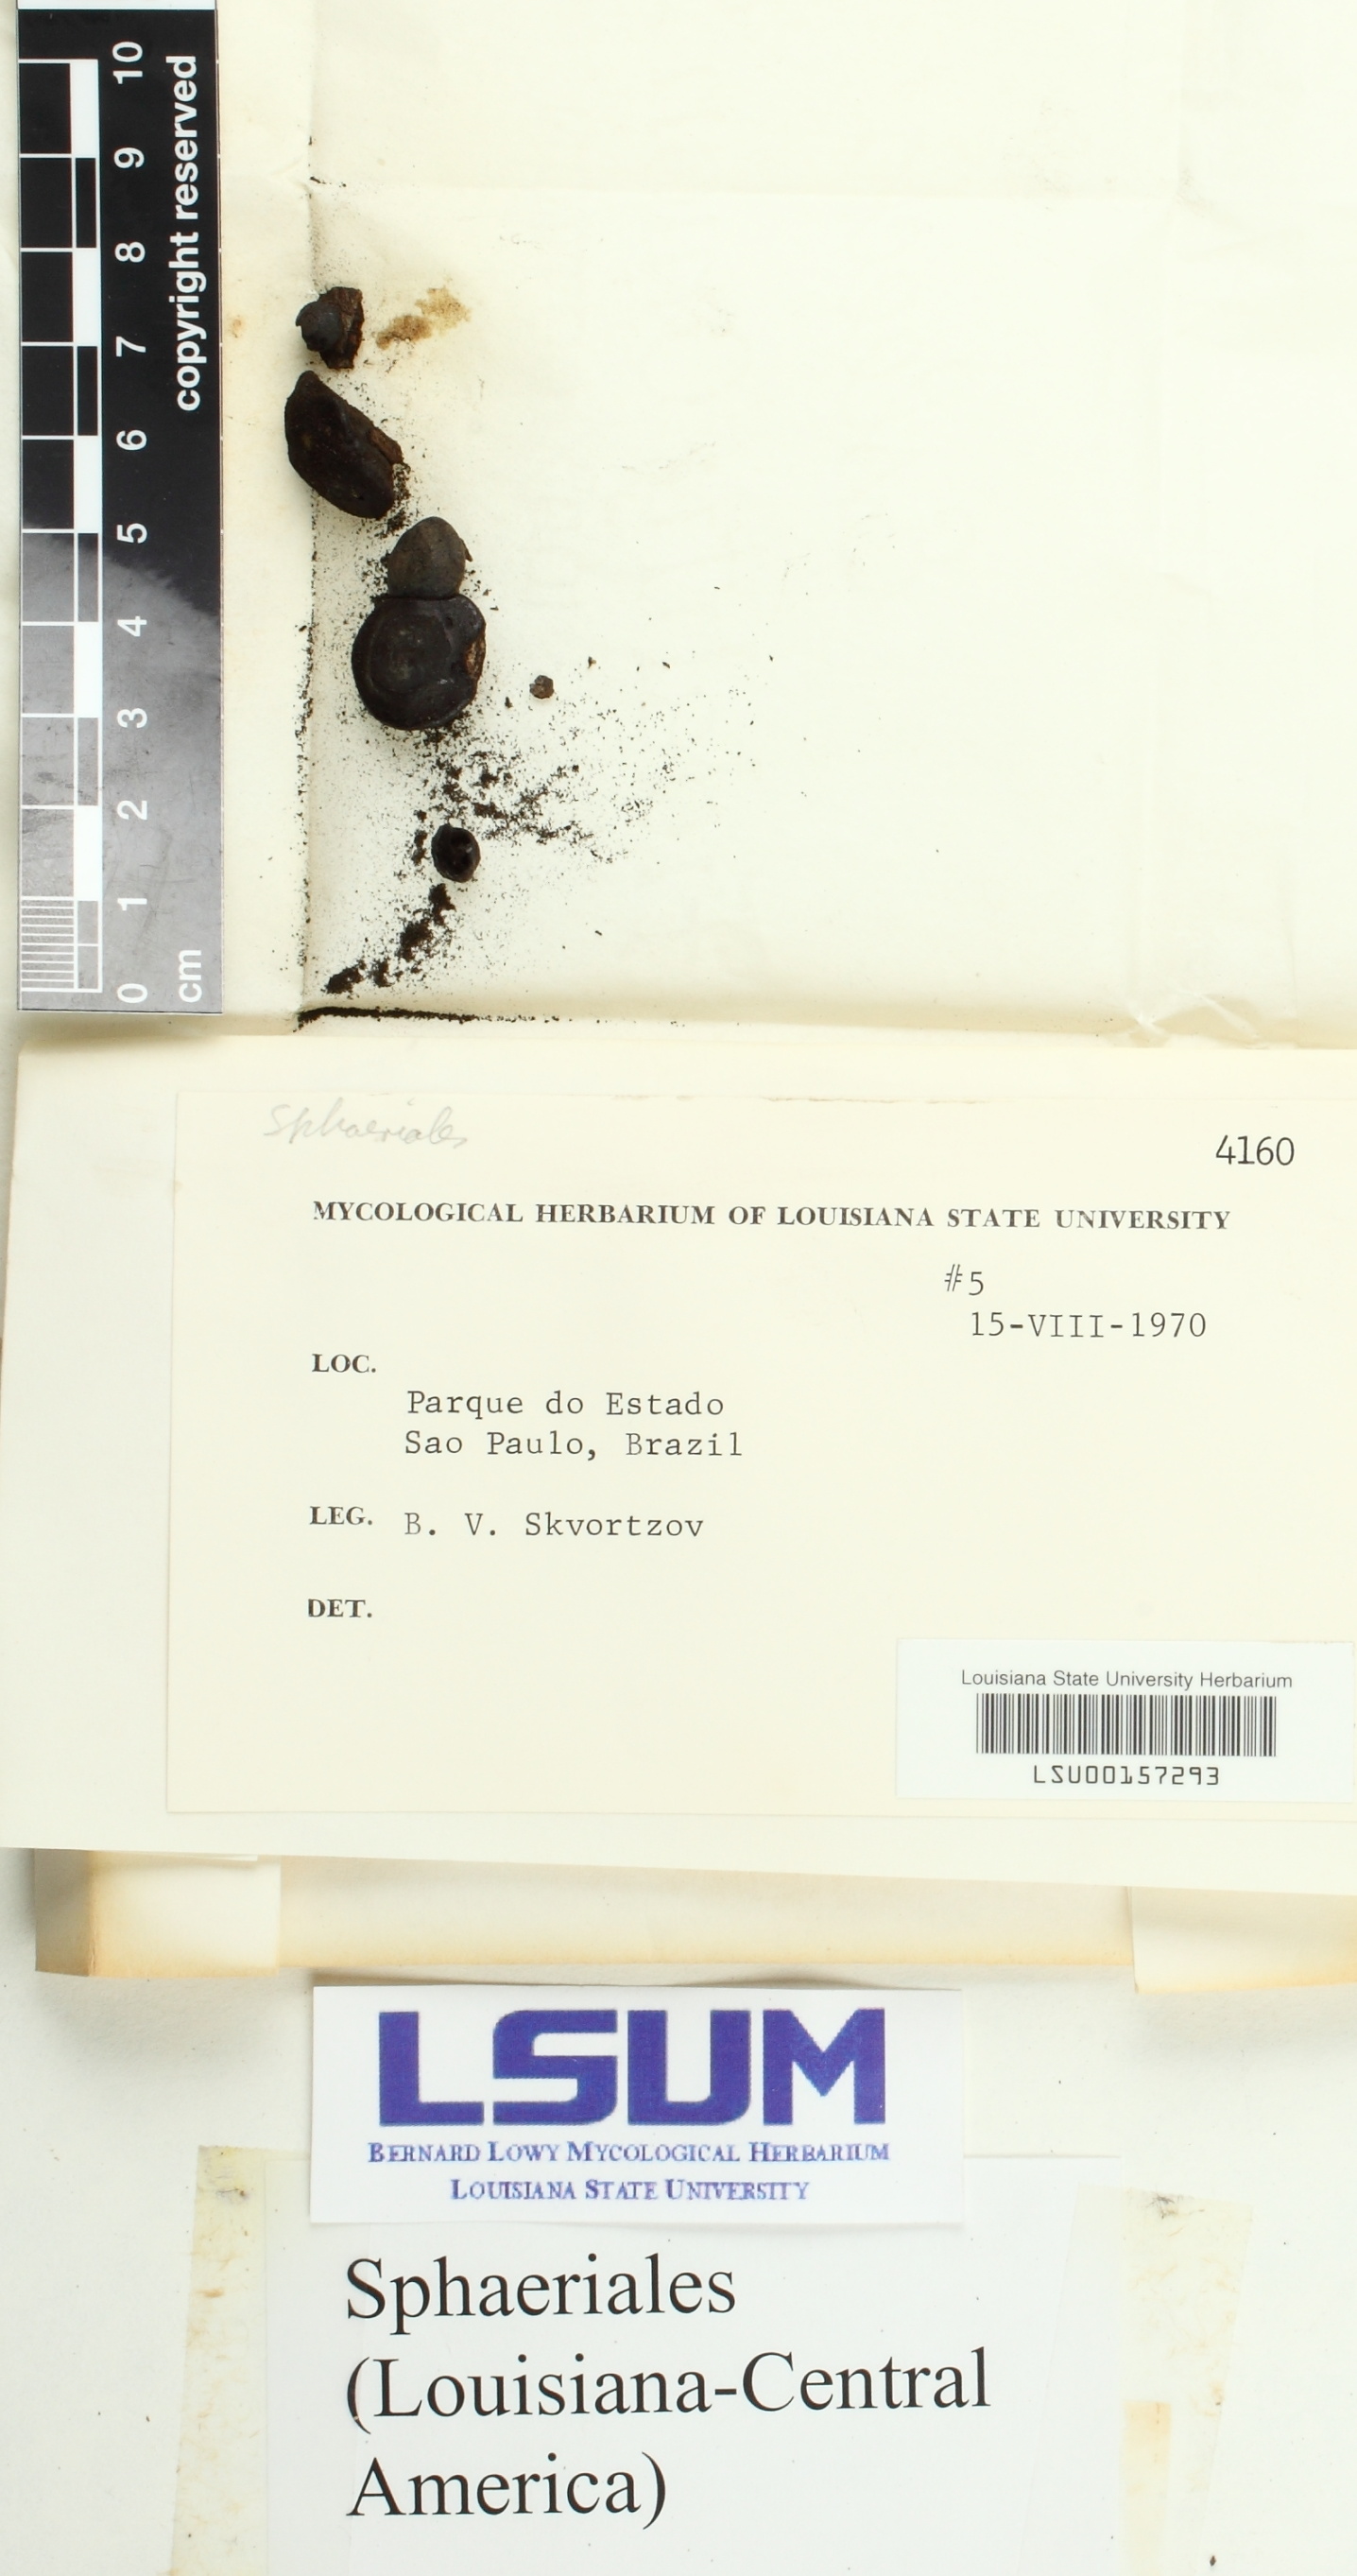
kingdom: Fungi
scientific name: Fungi
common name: Fungi
